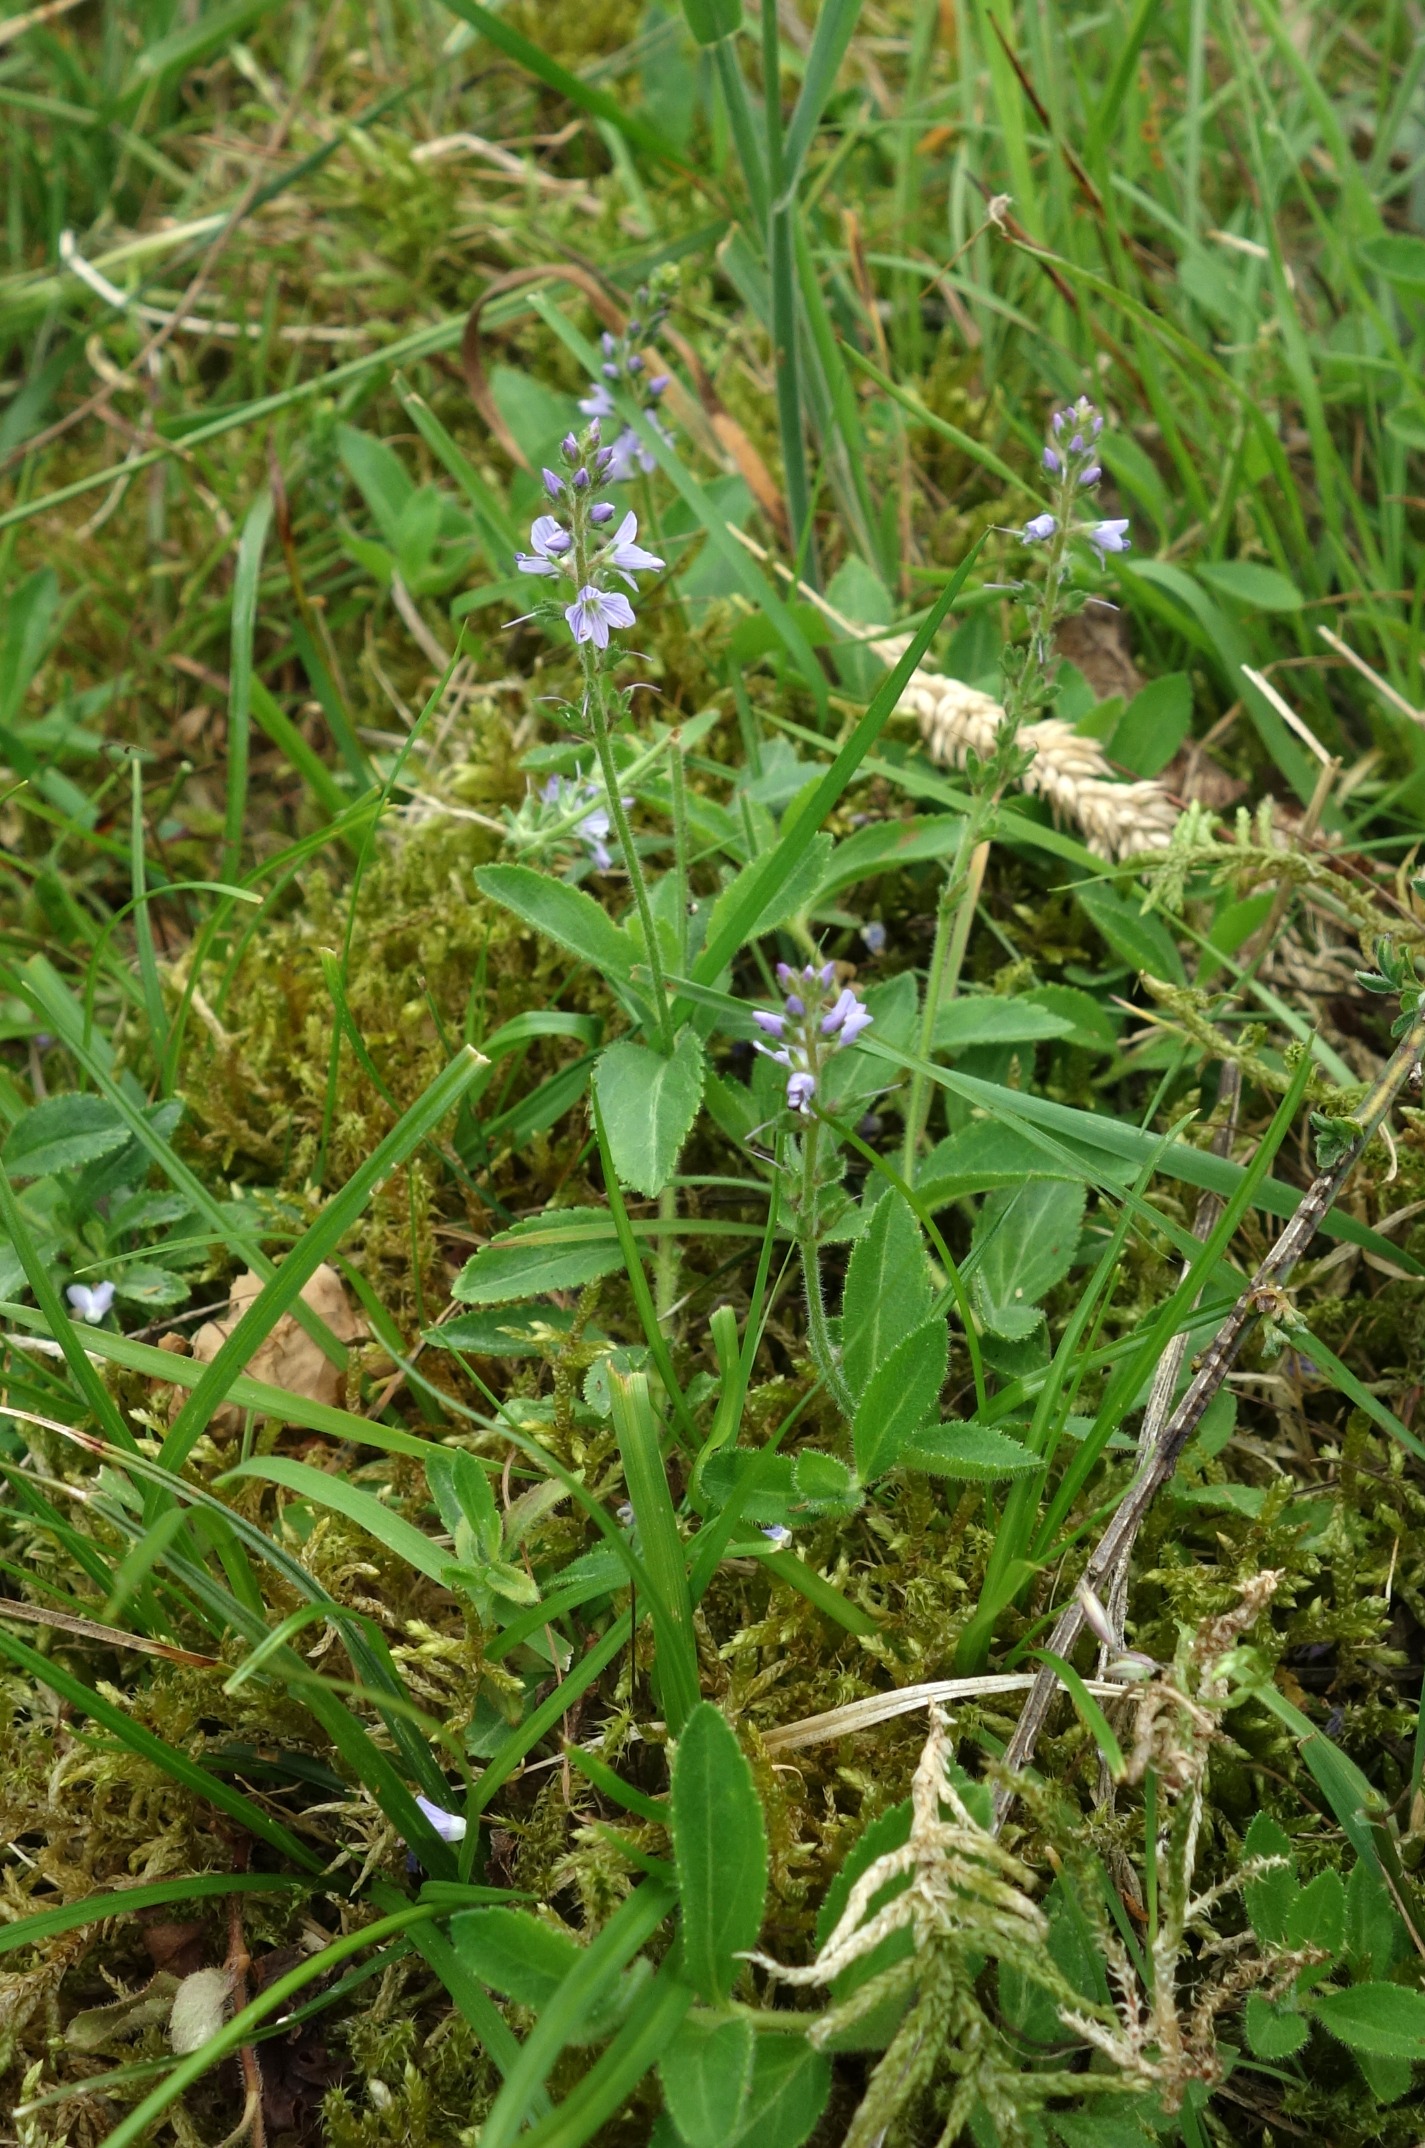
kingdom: Plantae
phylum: Tracheophyta
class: Magnoliopsida
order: Lamiales
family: Plantaginaceae
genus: Veronica
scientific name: Veronica officinalis
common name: Læge-ærenpris
